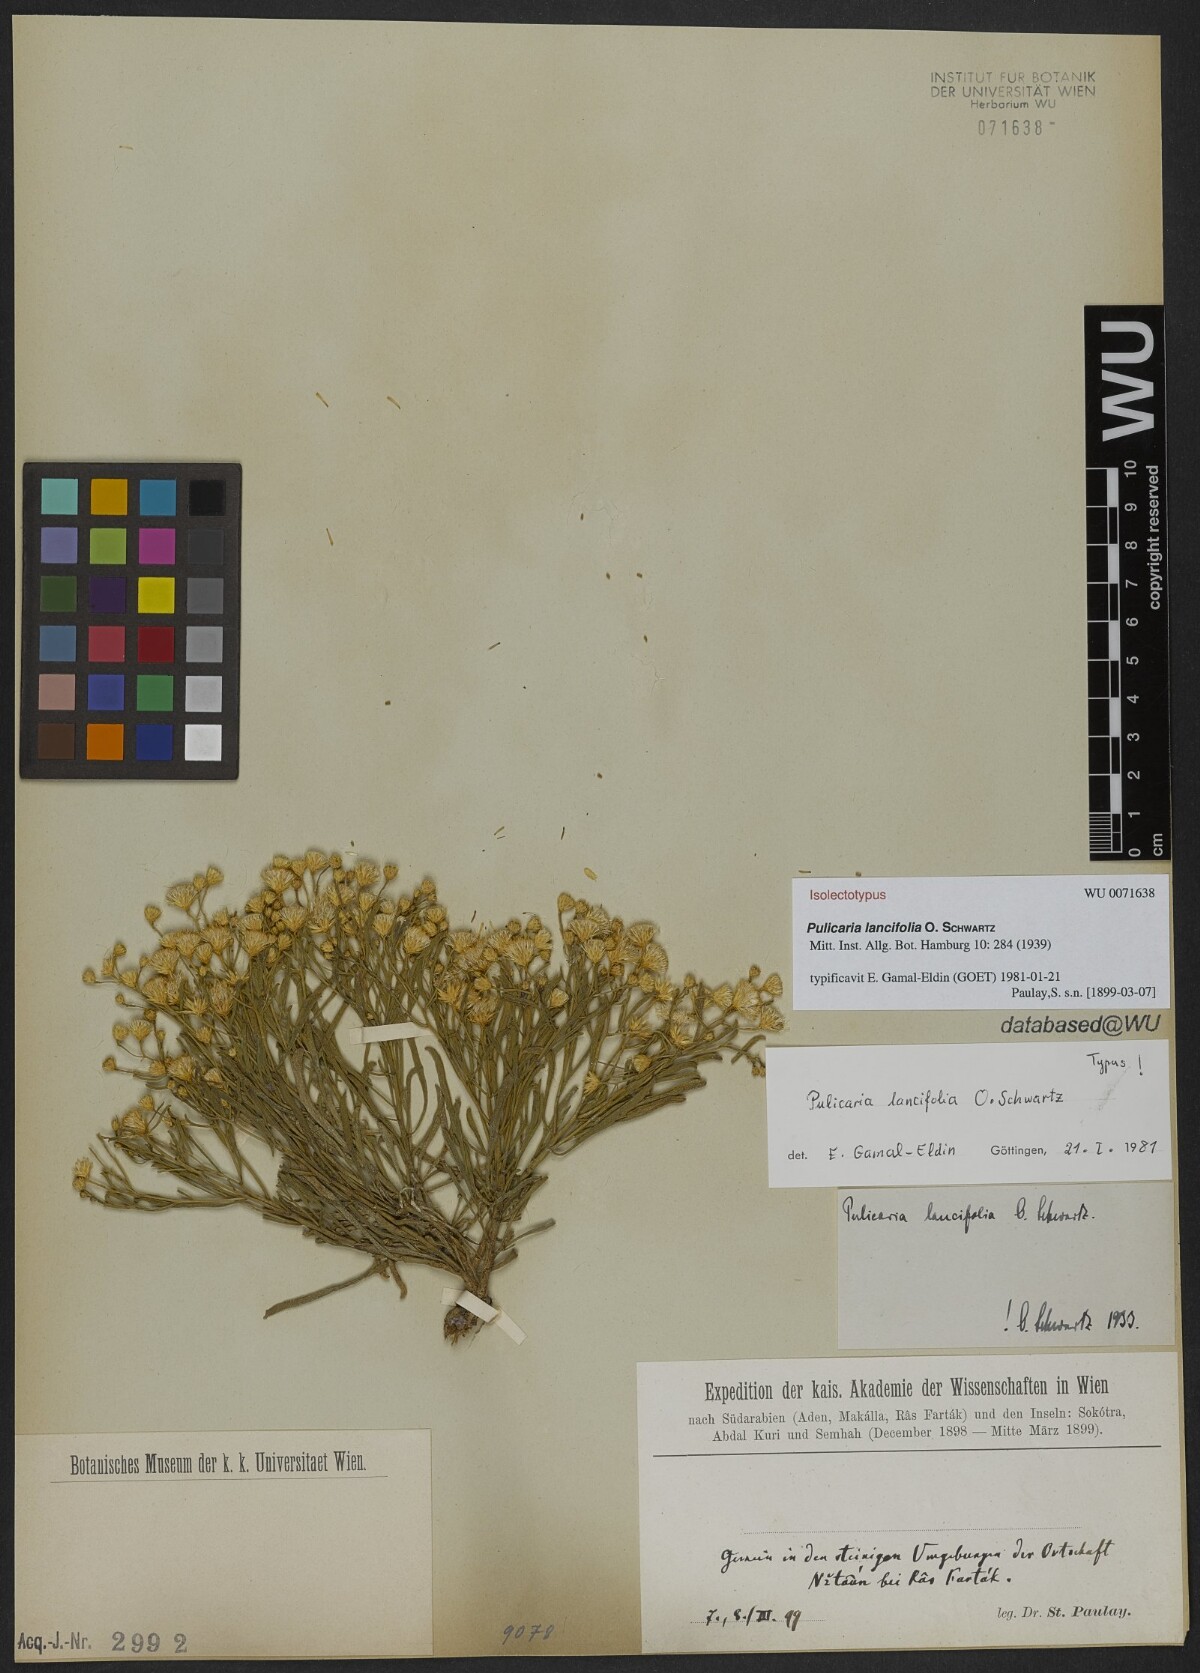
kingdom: Plantae
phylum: Tracheophyta
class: Magnoliopsida
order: Asterales
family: Asteraceae
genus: Pulicaria
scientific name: Pulicaria lanceifolia
